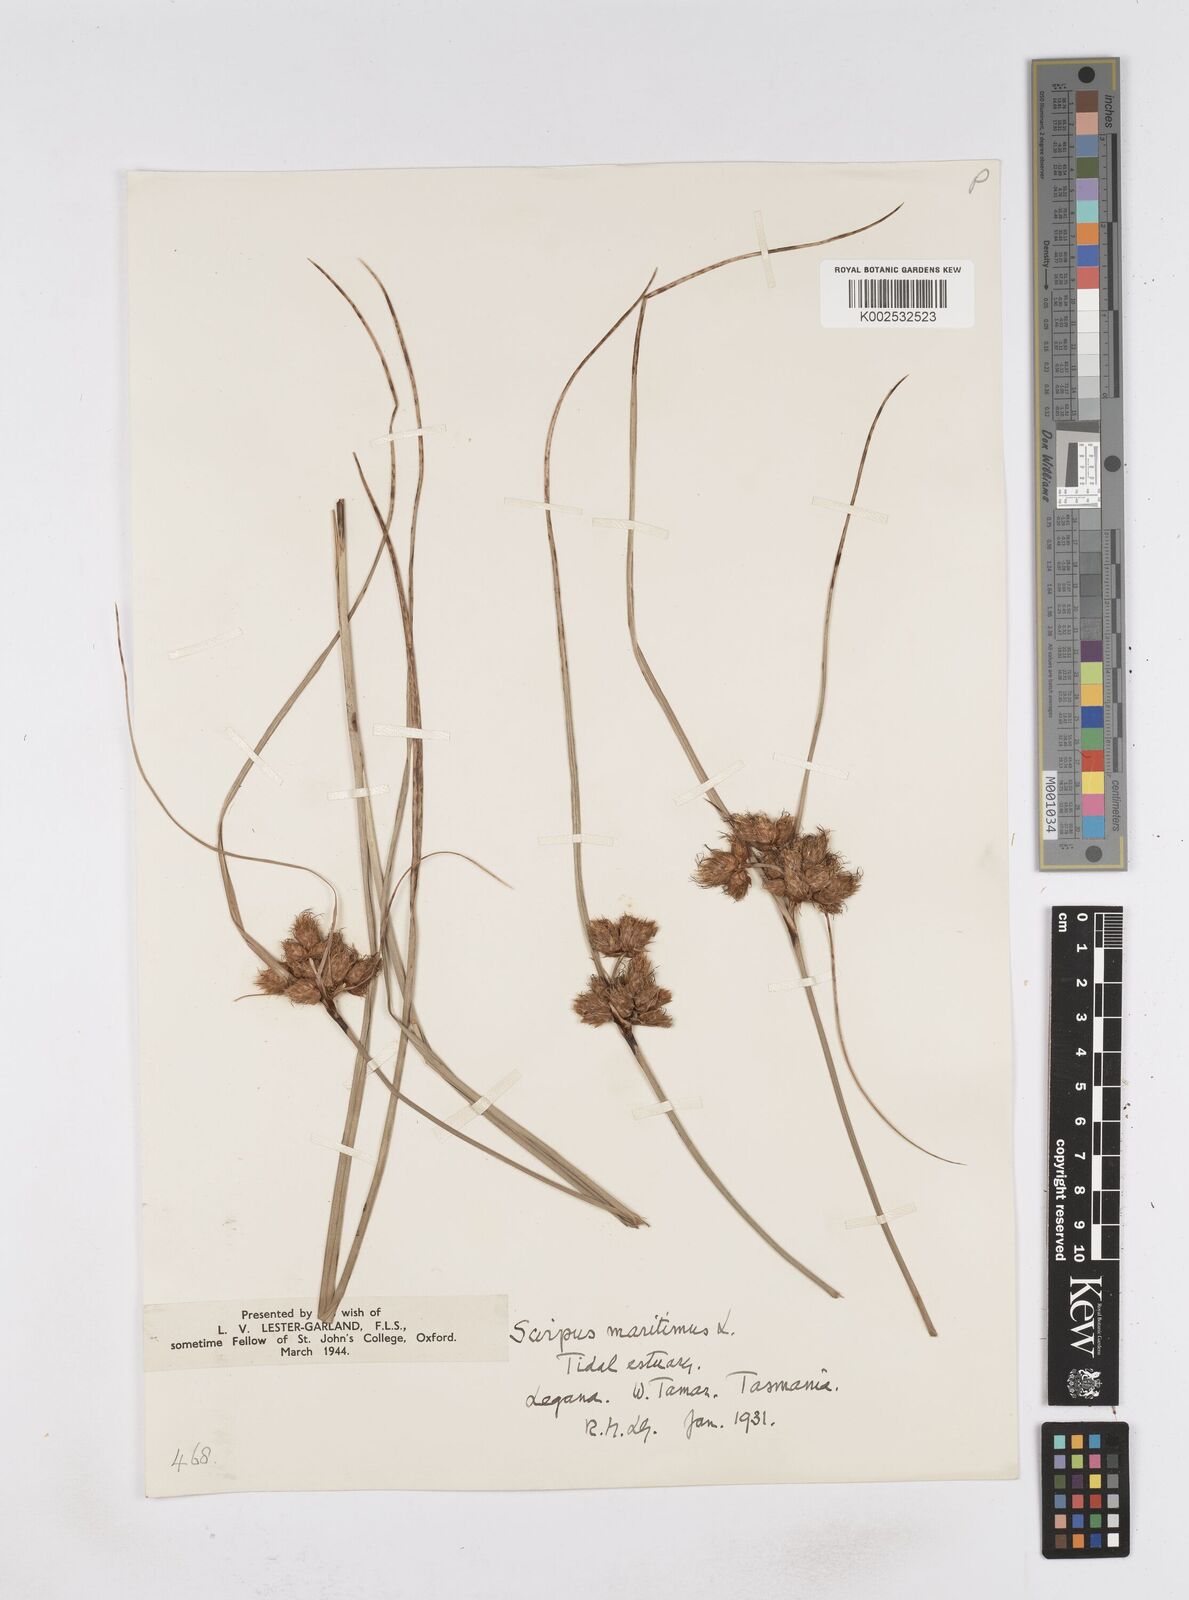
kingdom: Plantae
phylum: Tracheophyta
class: Liliopsida
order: Poales
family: Cyperaceae
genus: Bolboschoenus
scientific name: Bolboschoenus maritimus
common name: Sea club-rush
